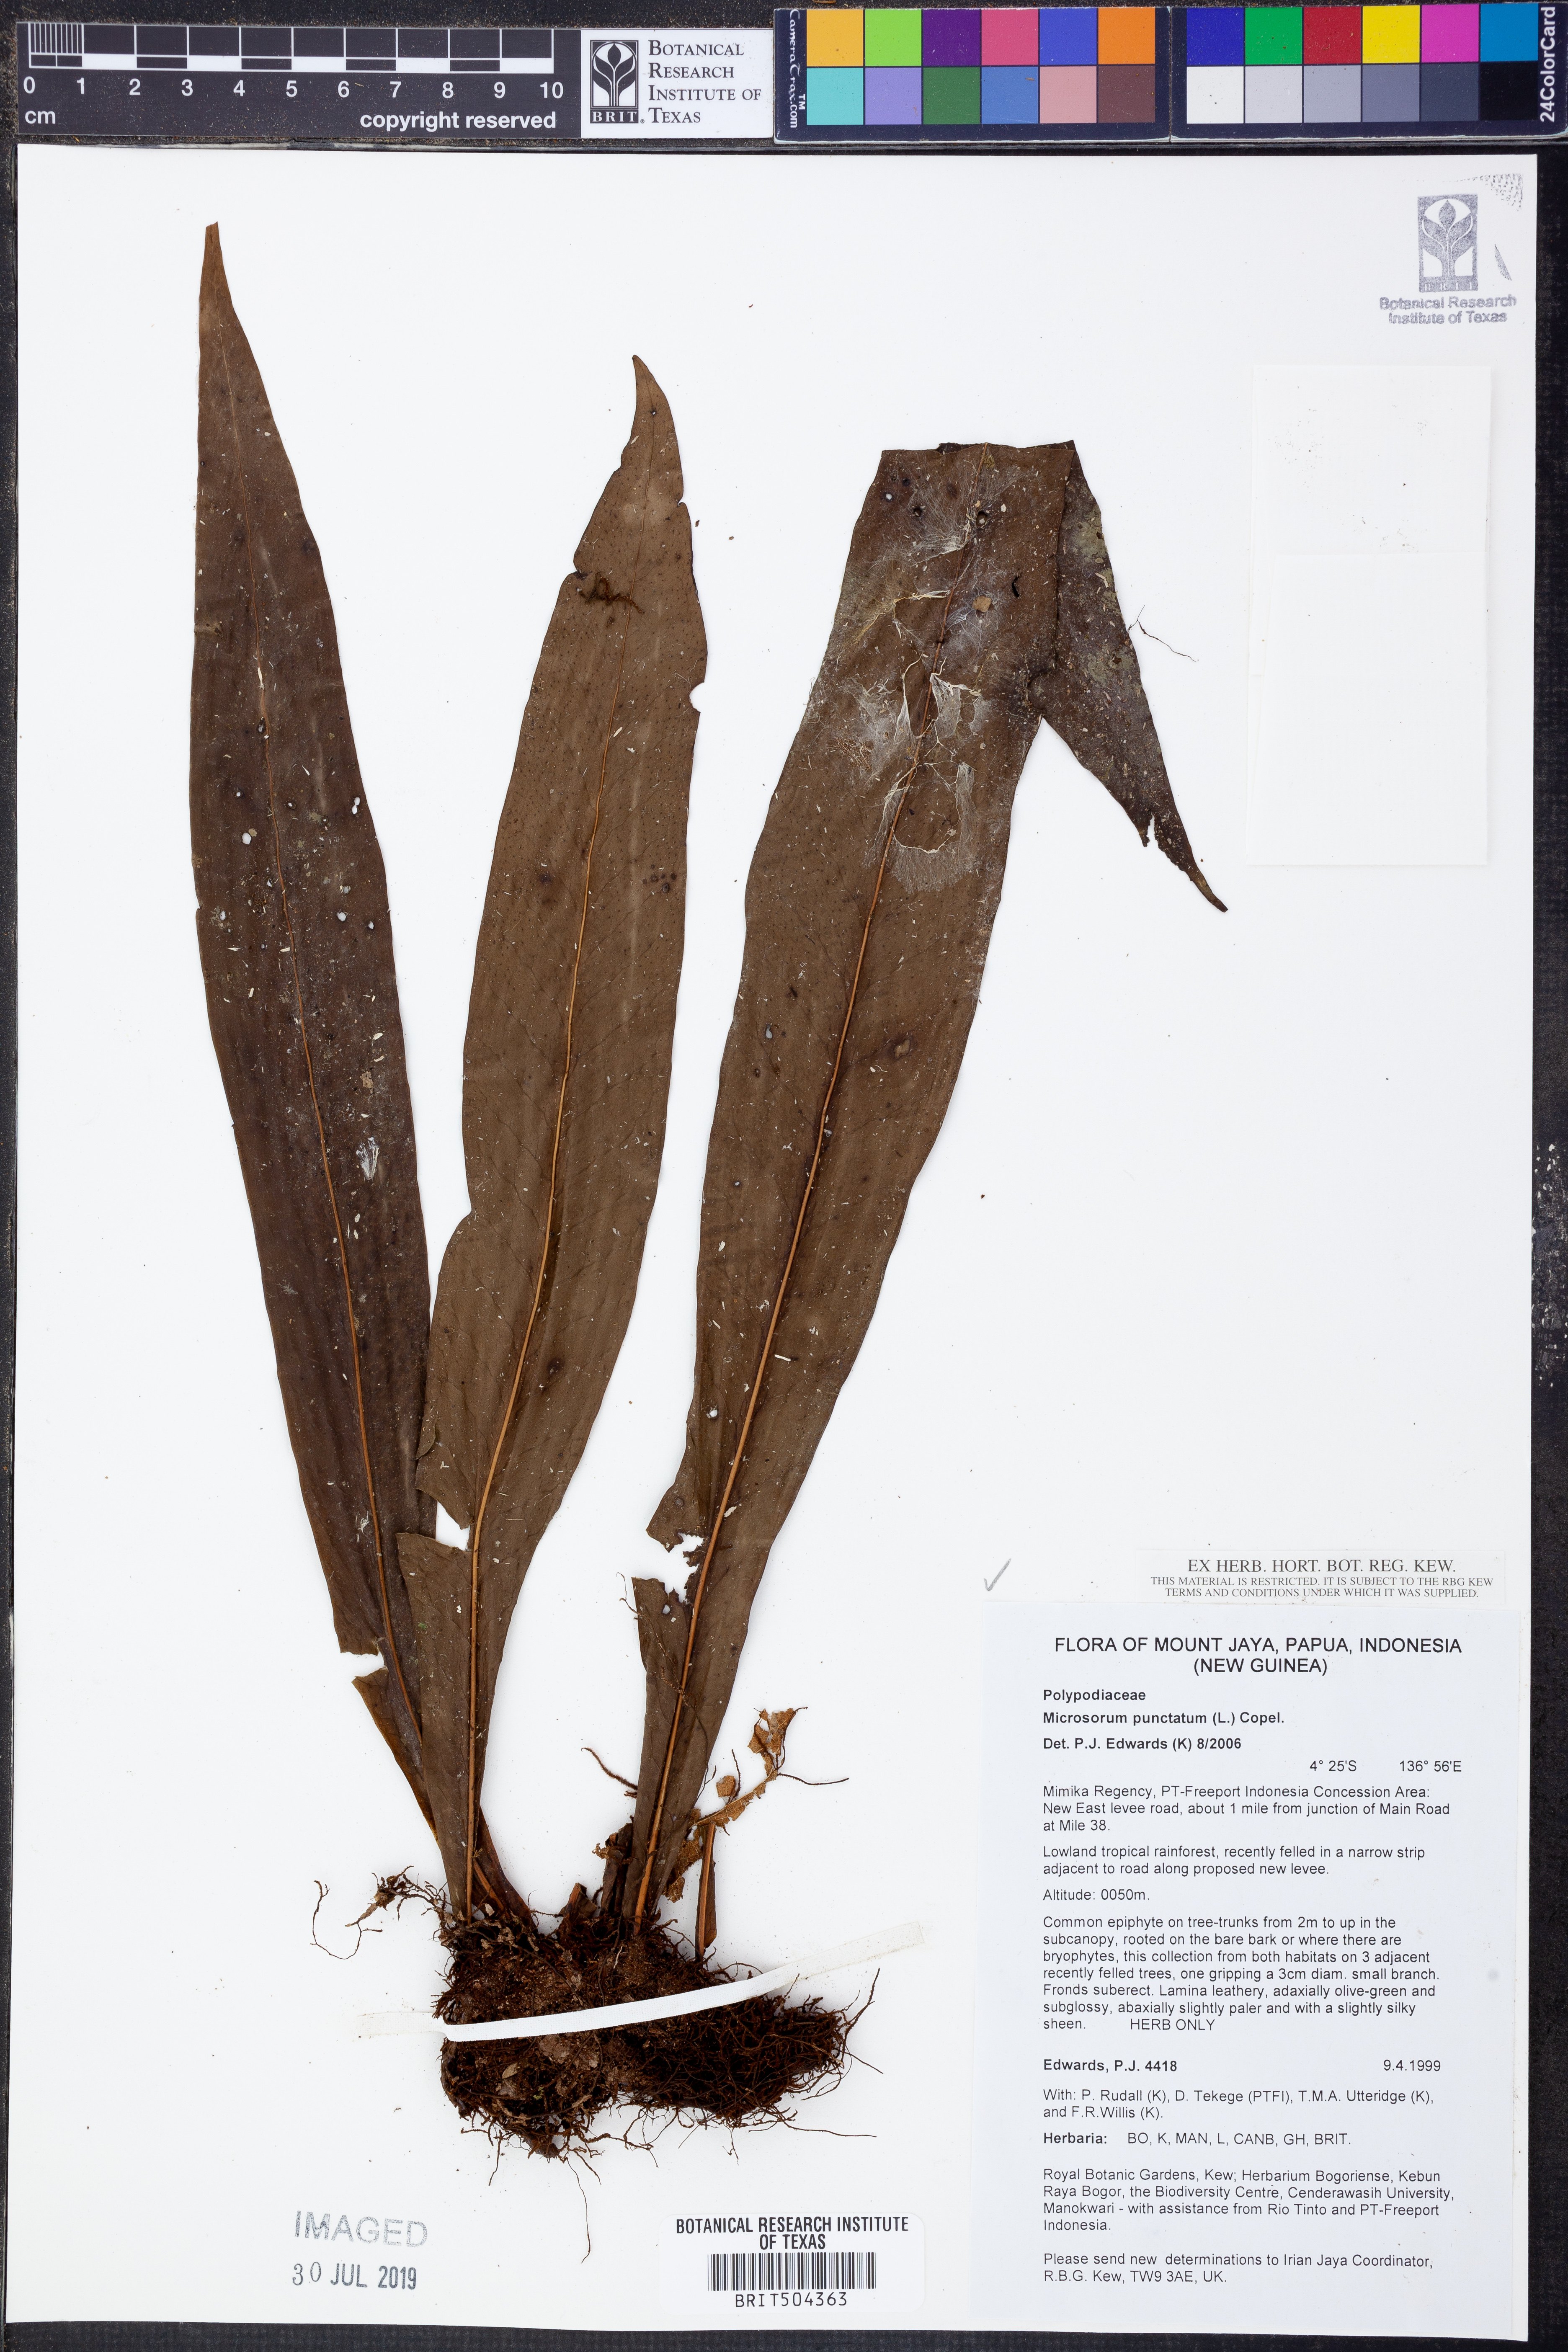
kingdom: Plantae
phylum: Tracheophyta
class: Polypodiopsida
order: Polypodiales
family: Polypodiaceae
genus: Microsorum
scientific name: Microsorum punctatum
